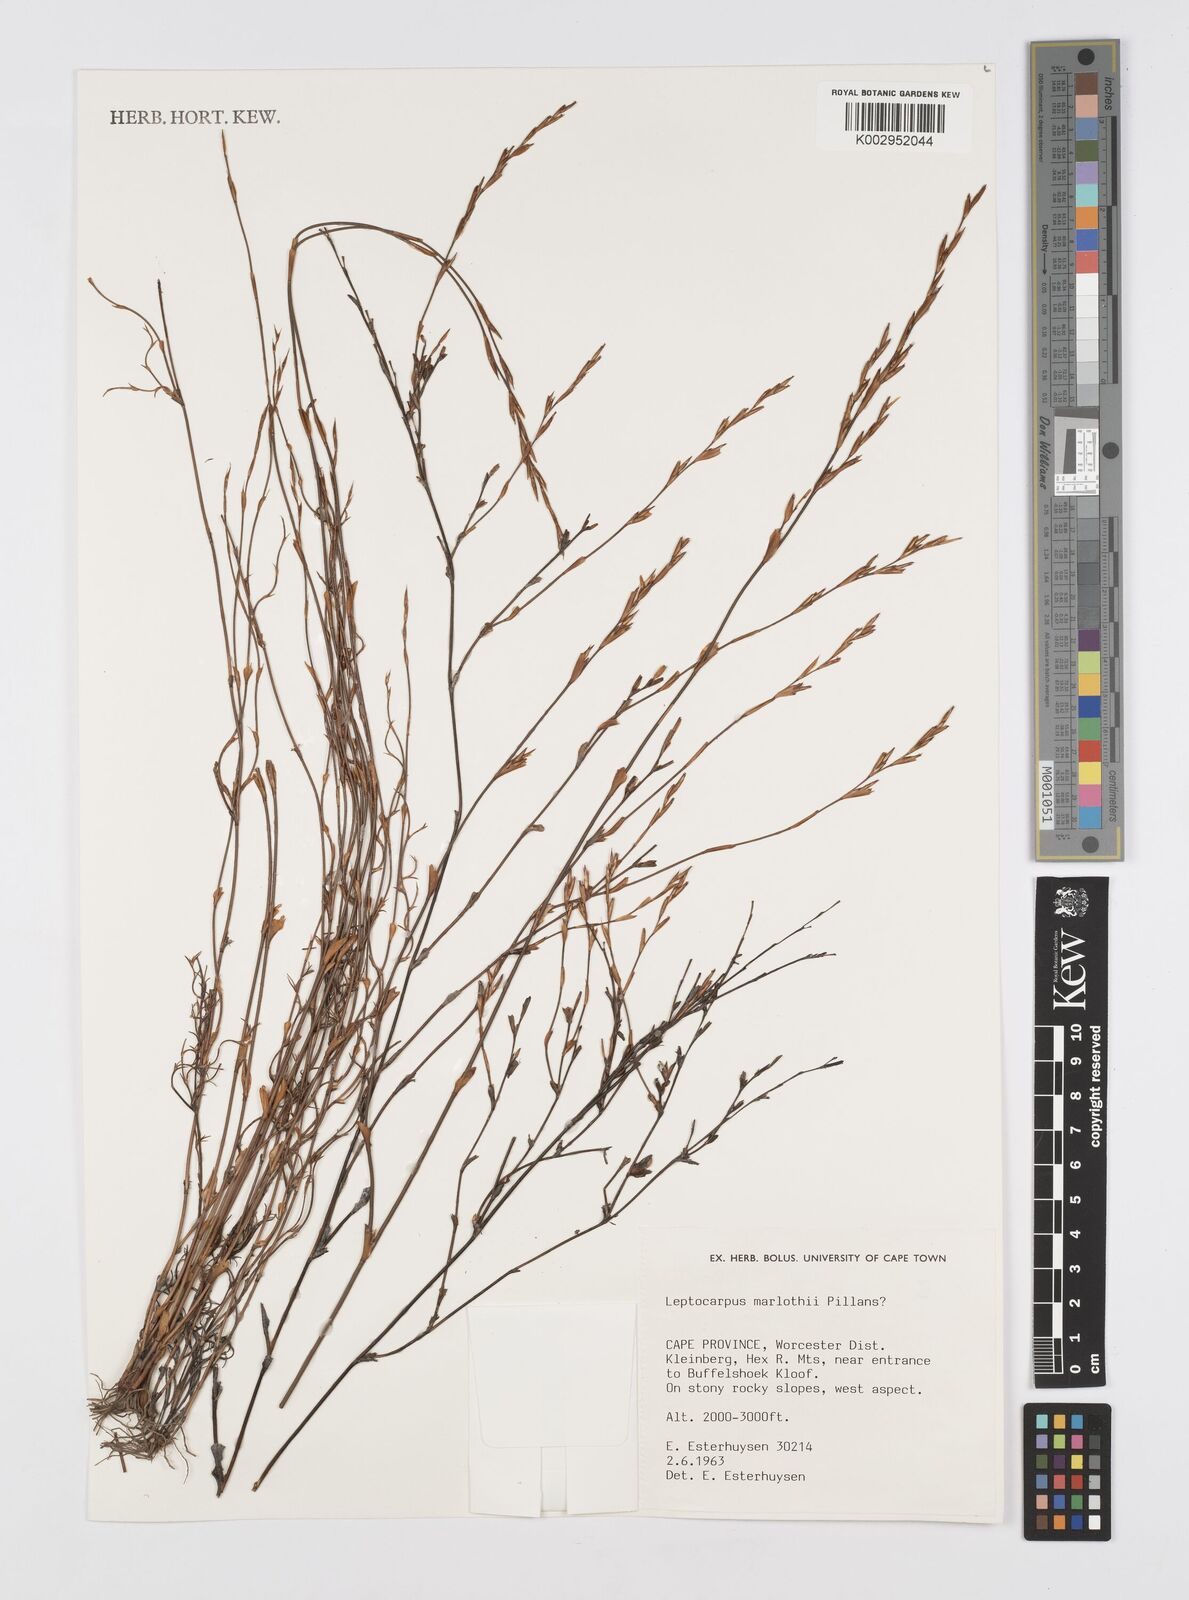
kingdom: Plantae
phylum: Tracheophyta
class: Liliopsida
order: Poales
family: Restionaceae
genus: Restio
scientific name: Restio marlothii
